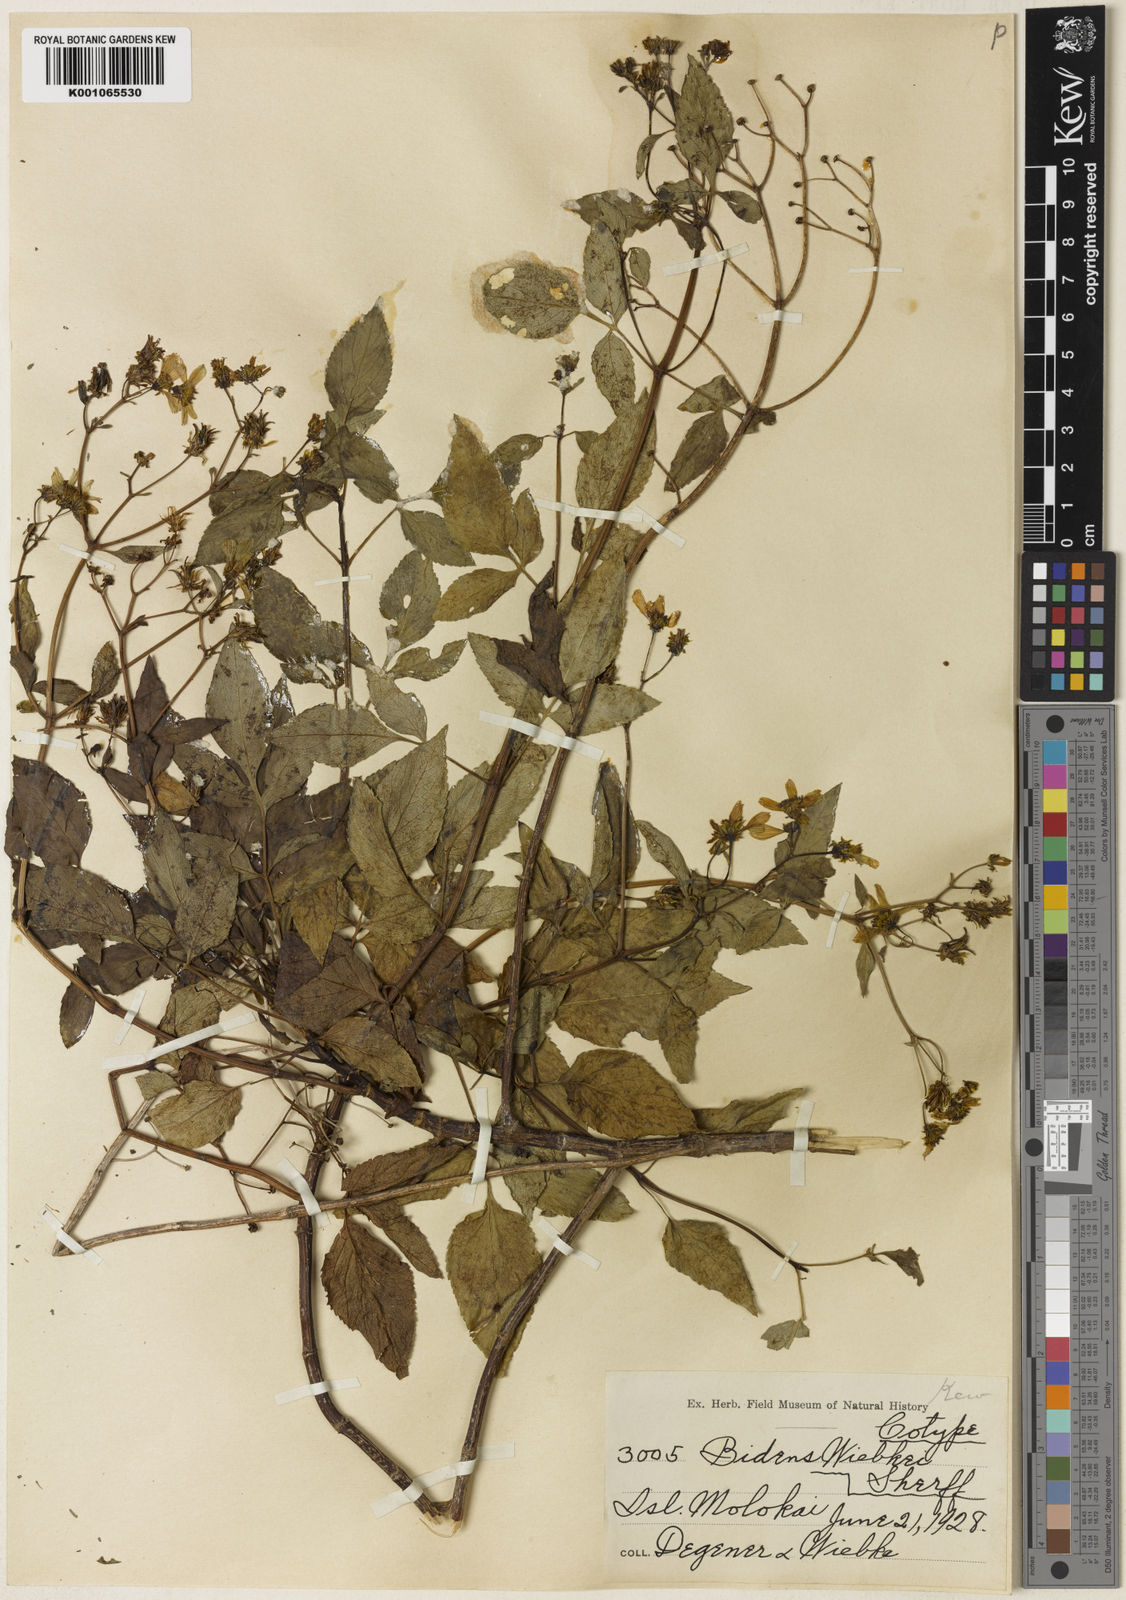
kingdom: Plantae
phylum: Tracheophyta
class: Magnoliopsida
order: Asterales
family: Asteraceae
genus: Bidens
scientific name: Bidens wiebkei
